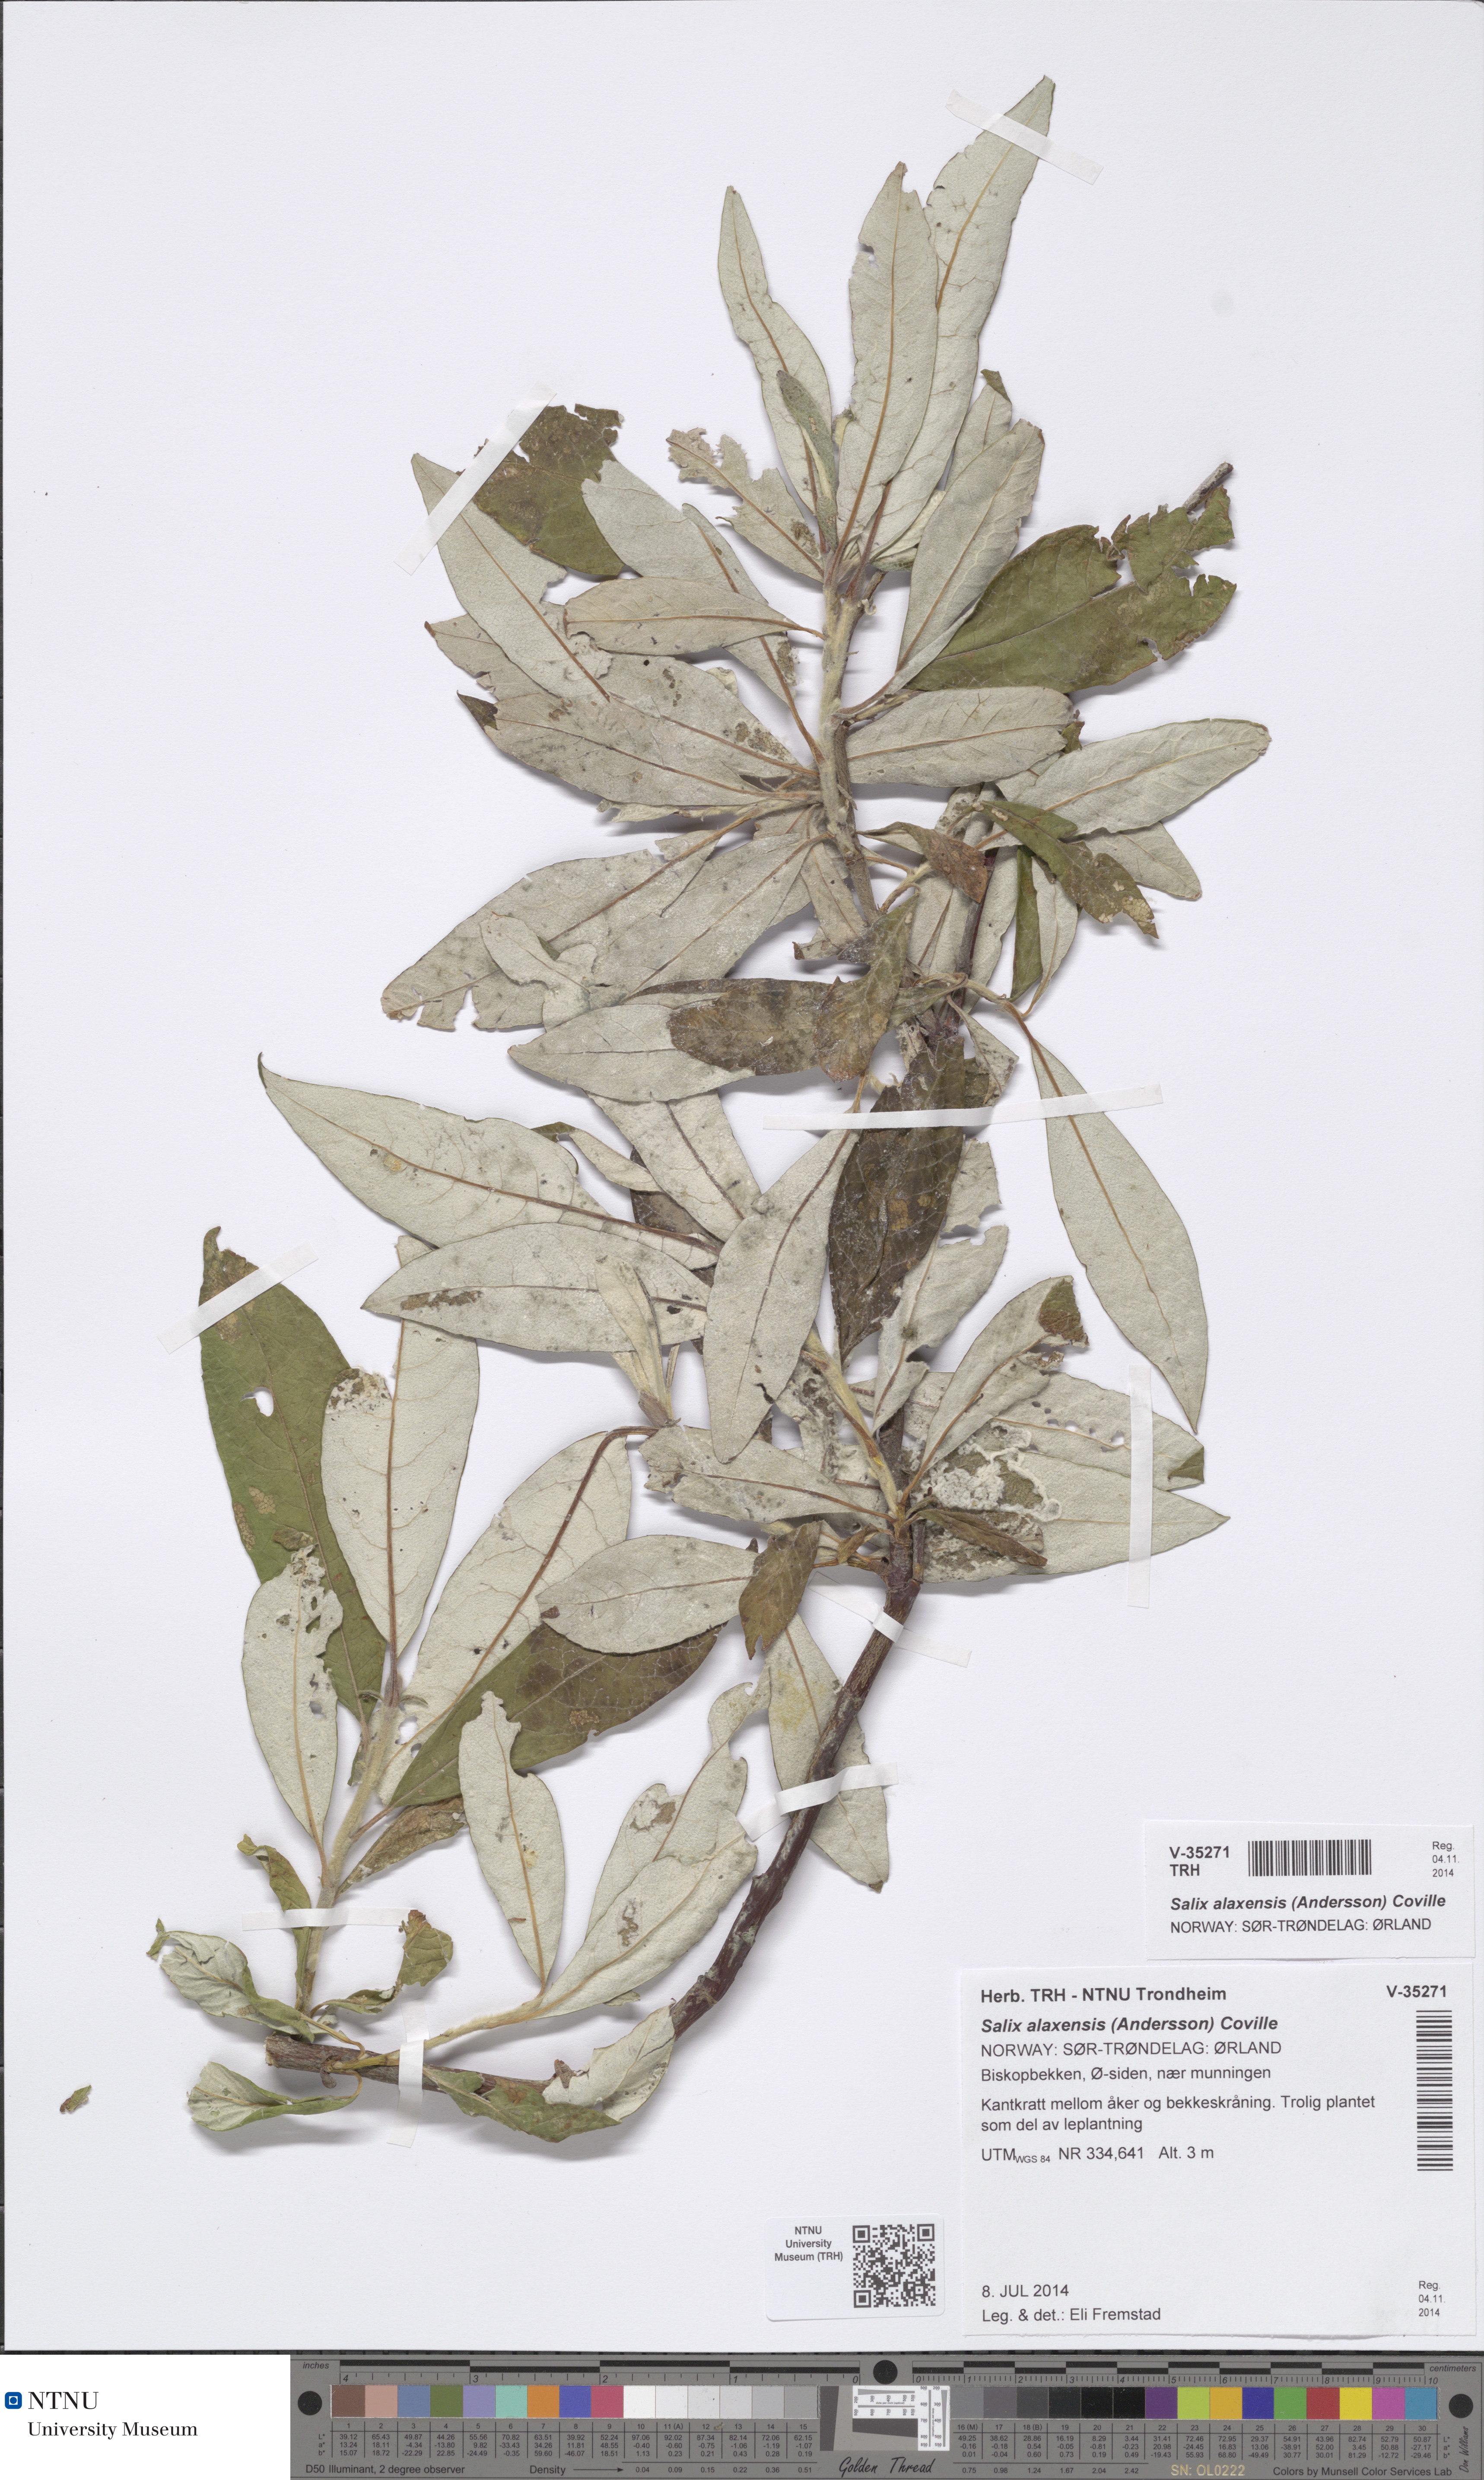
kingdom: Plantae
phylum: Tracheophyta
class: Magnoliopsida
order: Malpighiales
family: Salicaceae
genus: Salix
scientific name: Salix alaxensis
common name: Feltleaf willow
